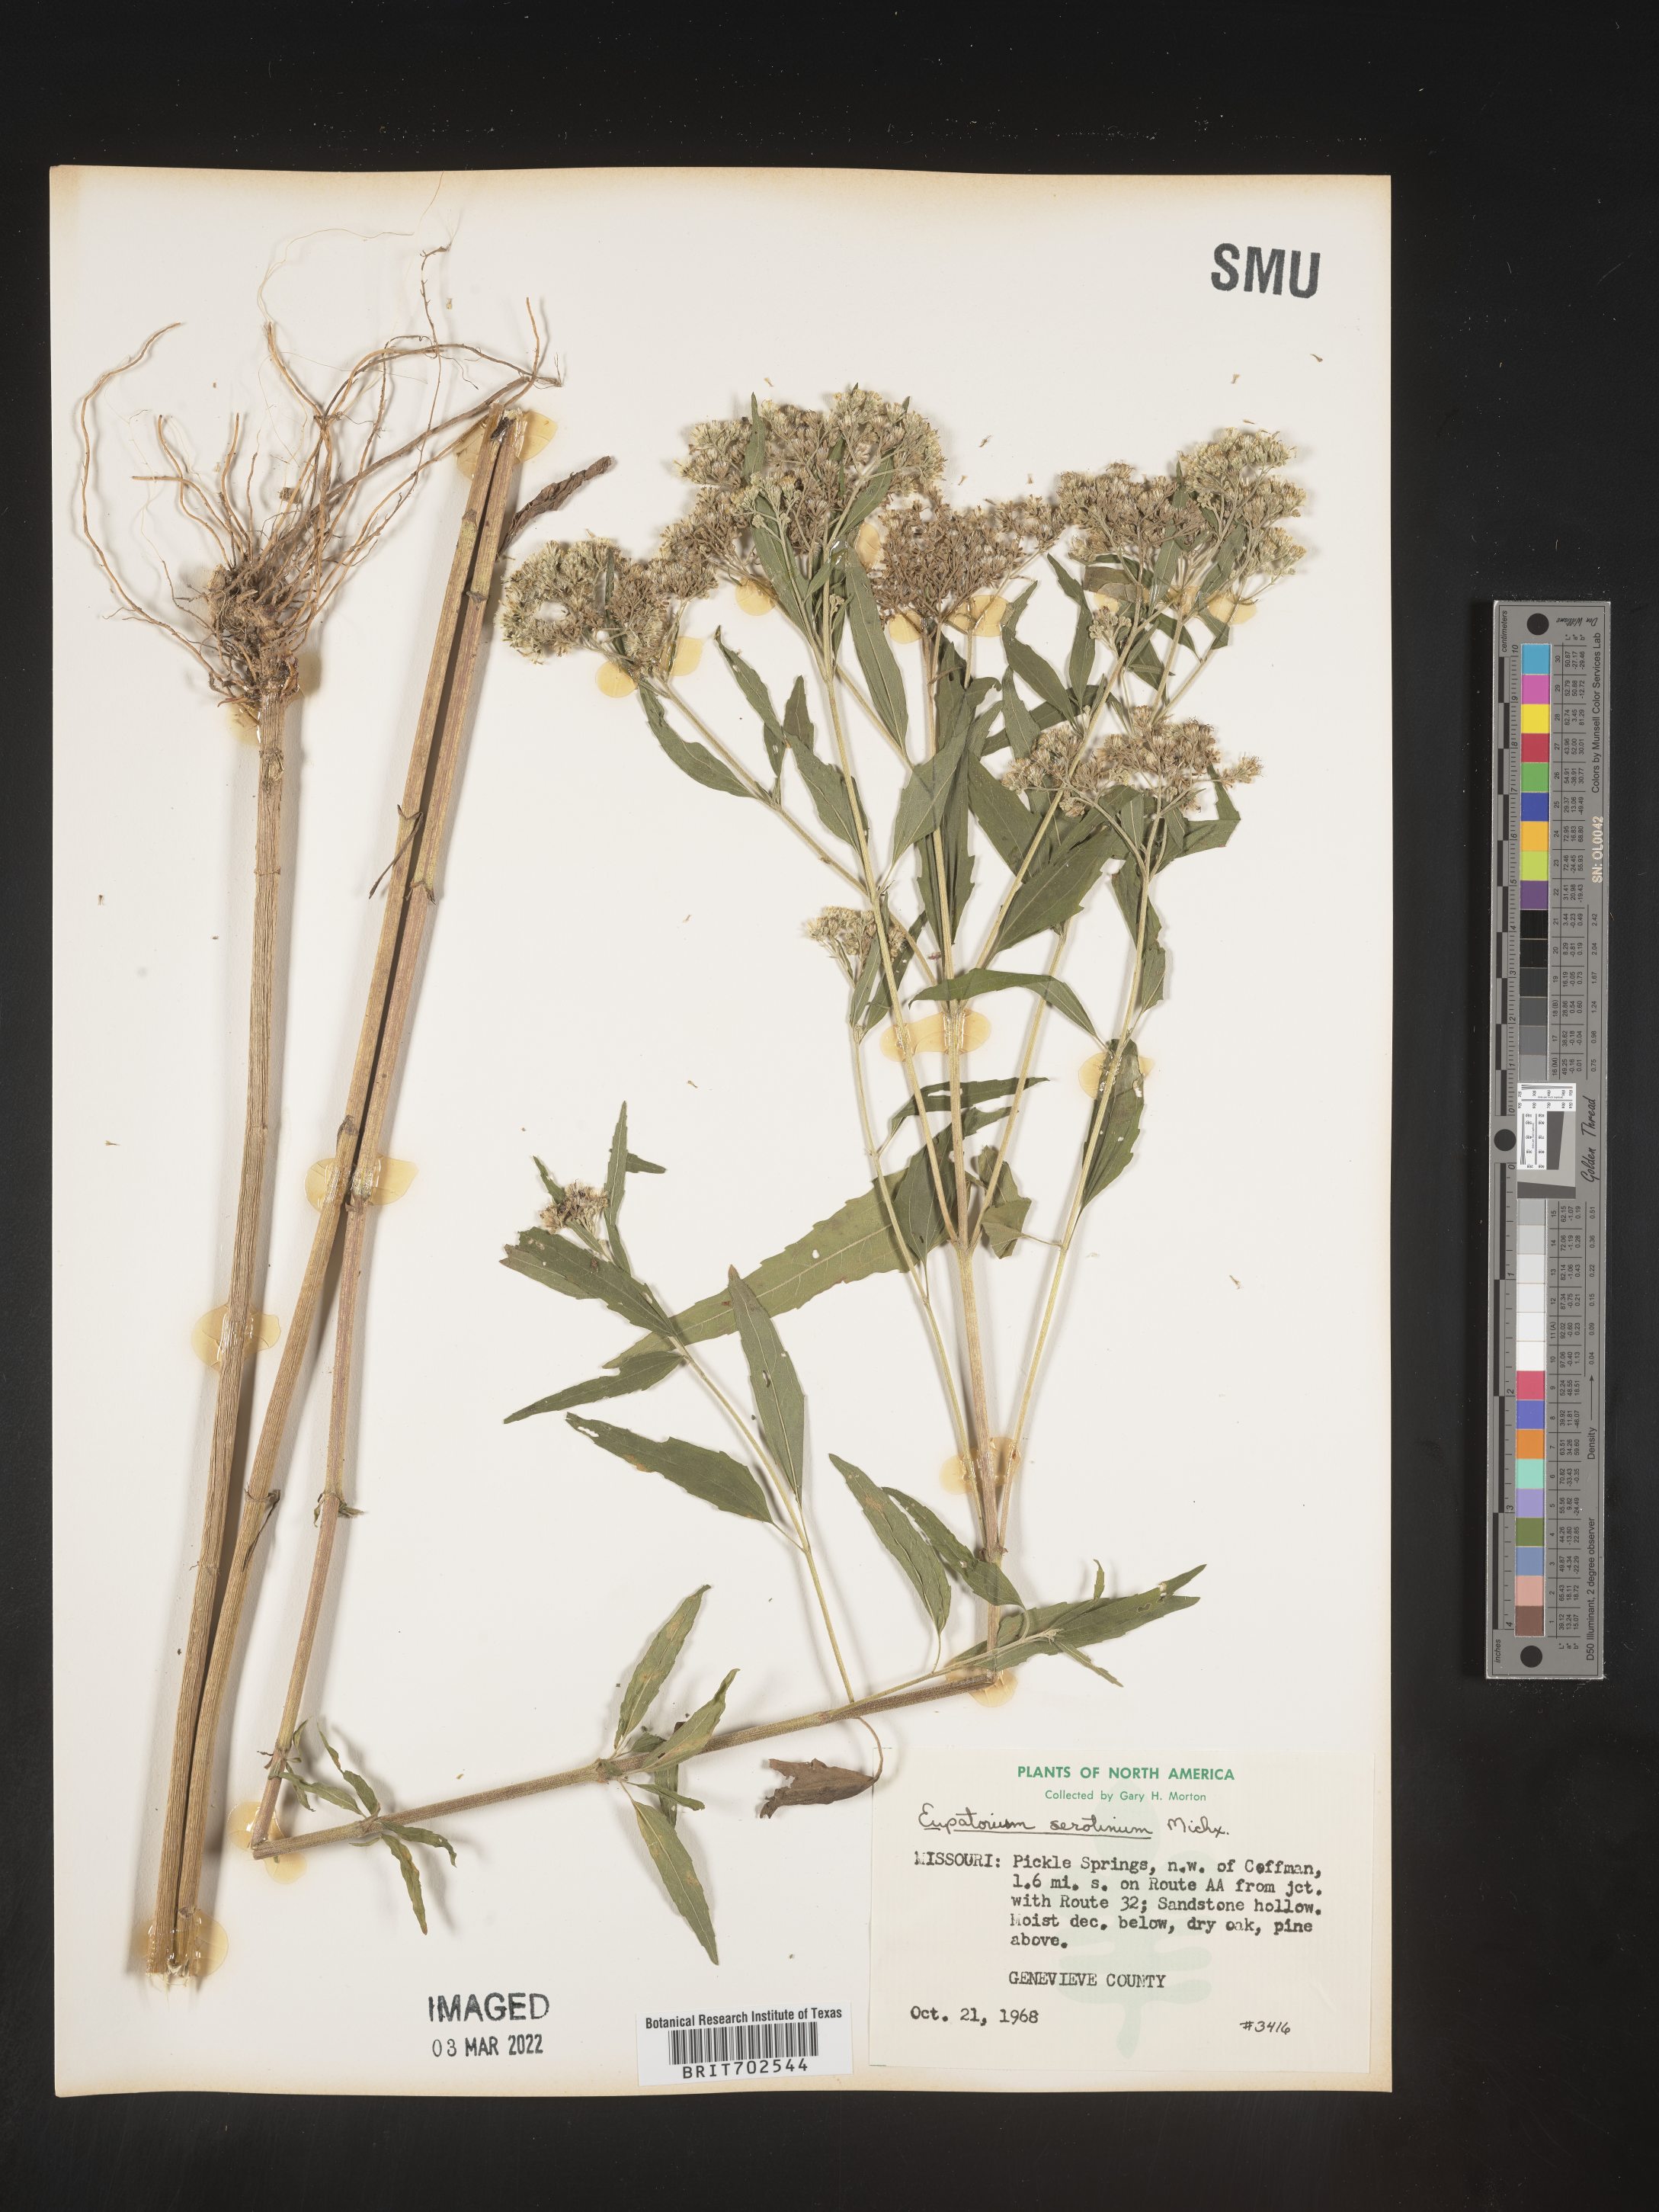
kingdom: Plantae
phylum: Tracheophyta
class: Magnoliopsida
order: Asterales
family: Asteraceae
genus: Eupatorium
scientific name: Eupatorium serotinum
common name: Late boneset
